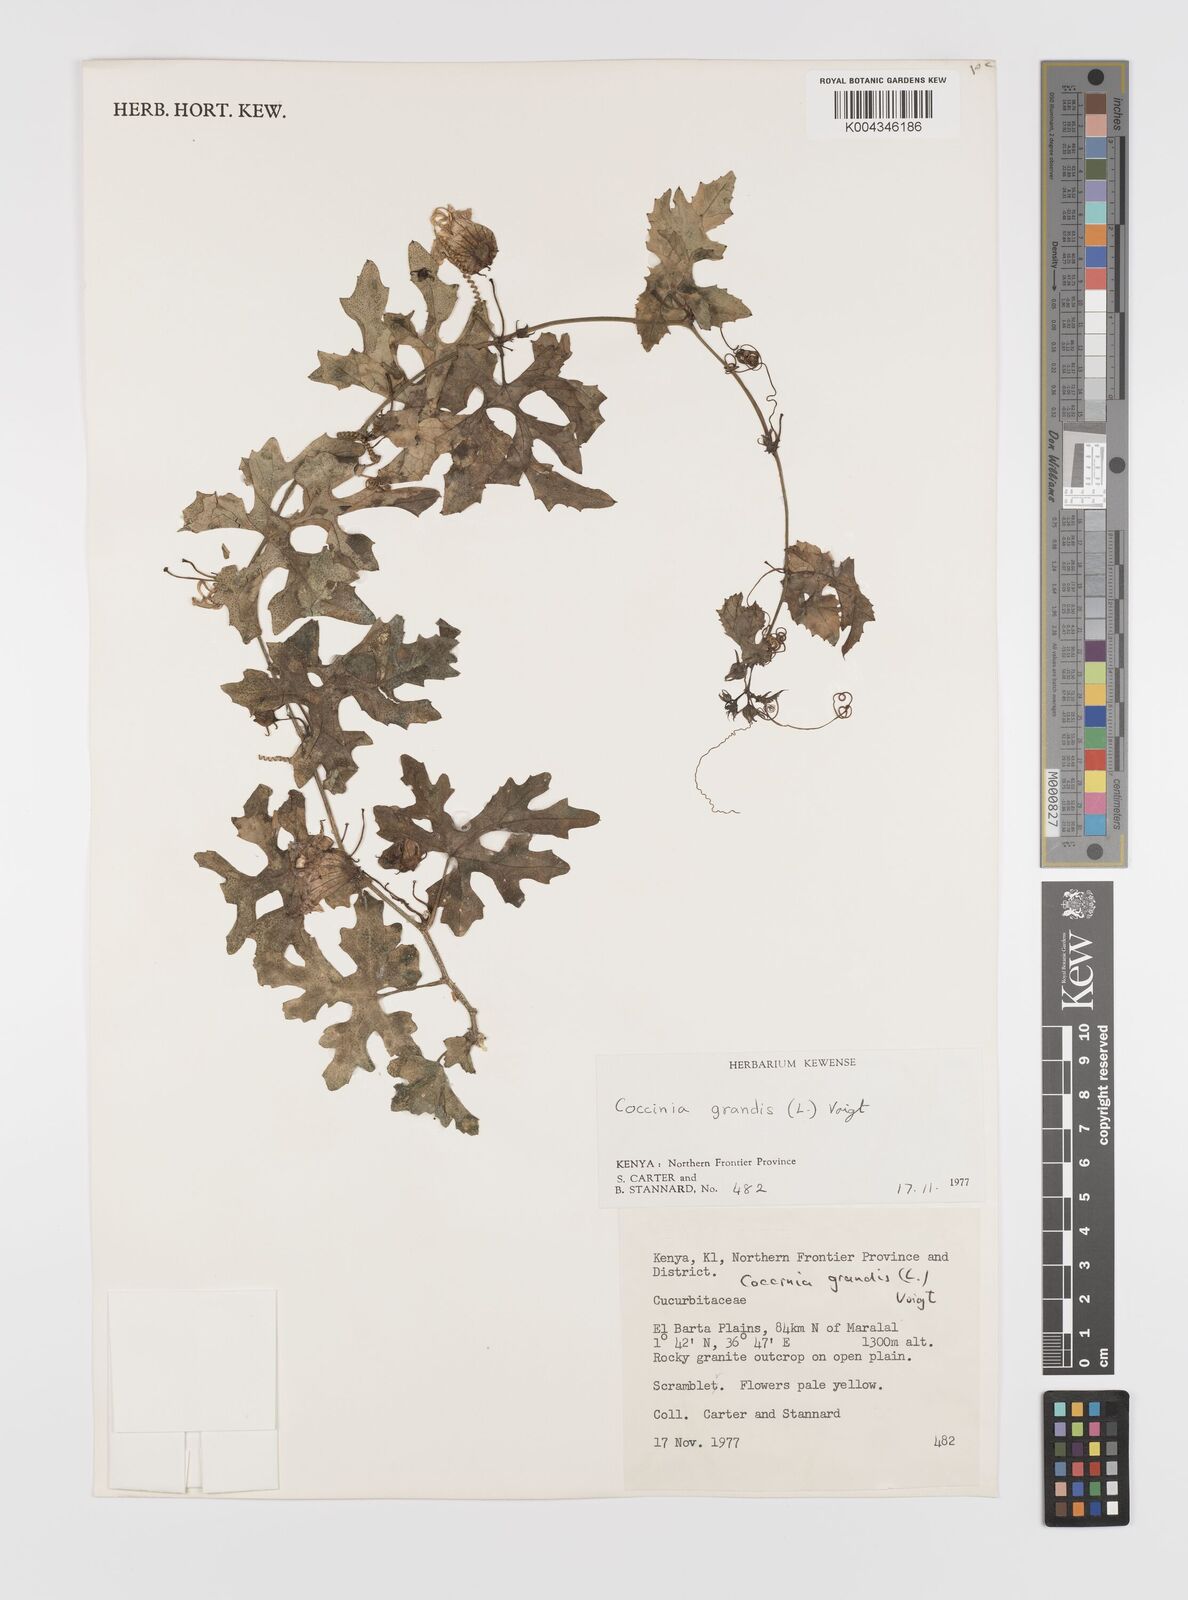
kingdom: Plantae
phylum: Tracheophyta
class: Magnoliopsida
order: Cucurbitales
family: Cucurbitaceae
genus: Coccinia
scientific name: Coccinia grandis
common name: Ivy gourd
